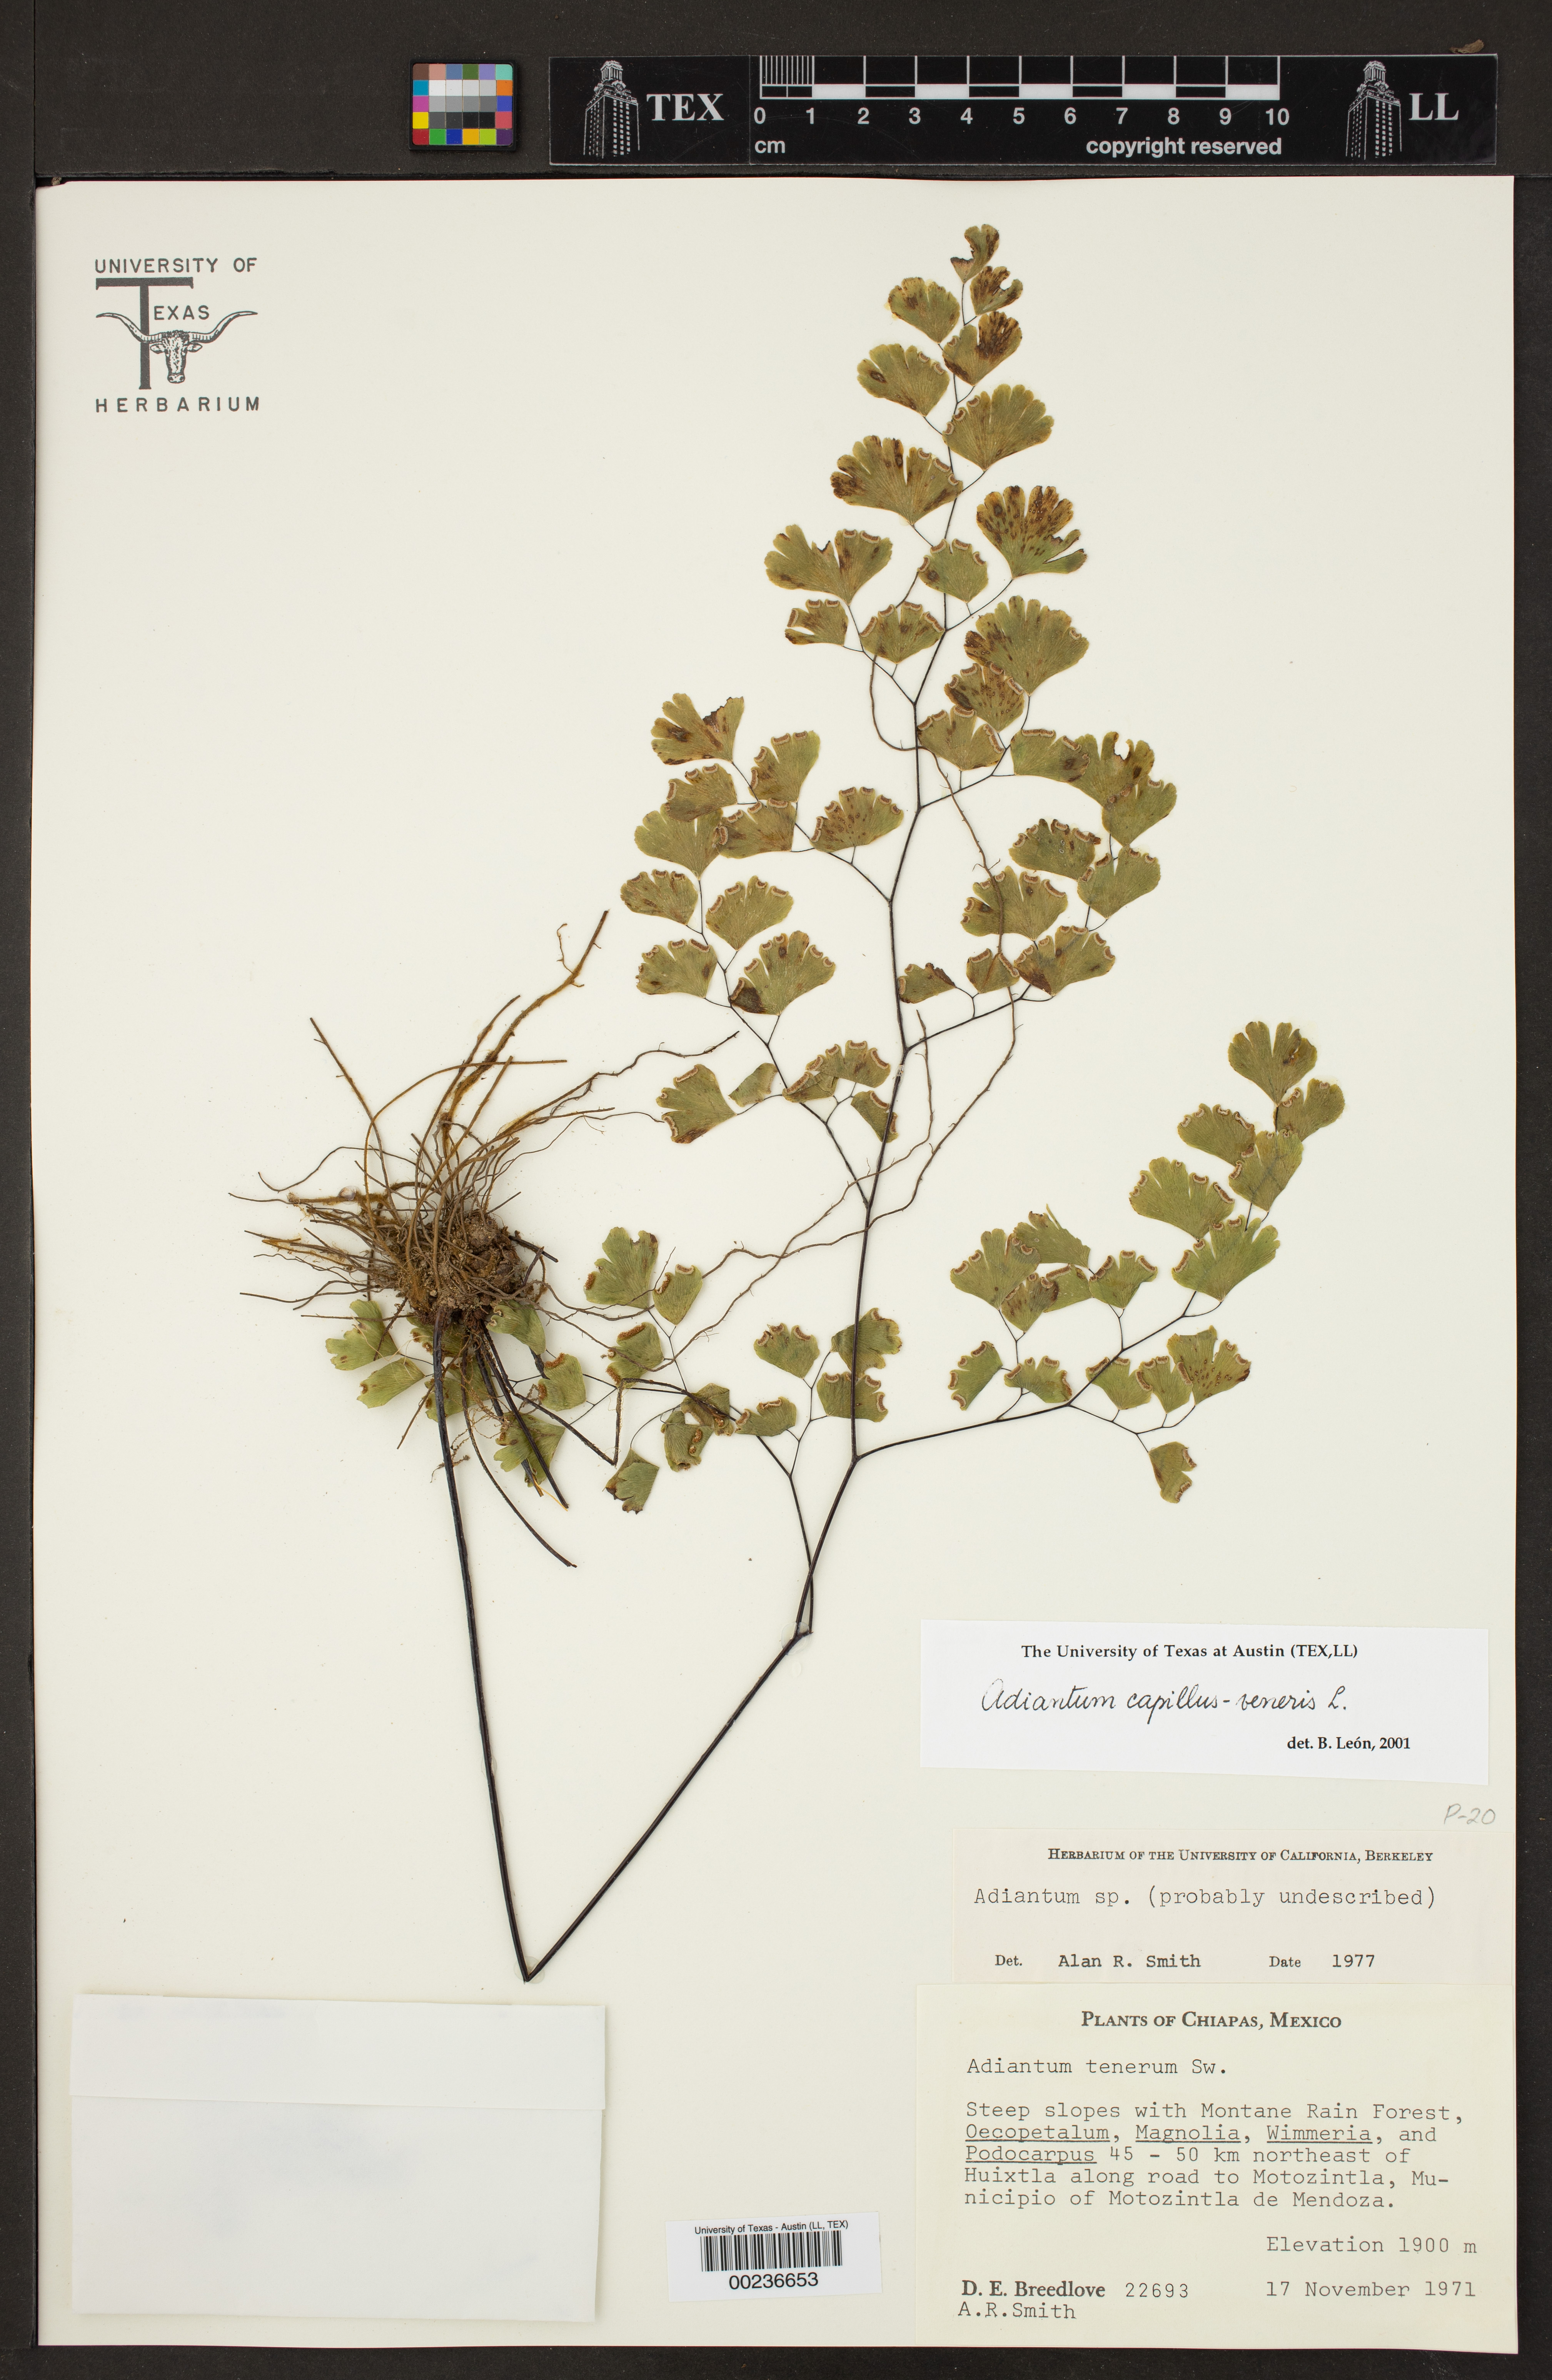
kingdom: Plantae
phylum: Tracheophyta
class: Polypodiopsida
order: Polypodiales
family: Pteridaceae
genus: Adiantum
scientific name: Adiantum capillus-veneris
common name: Maidenhair fern
